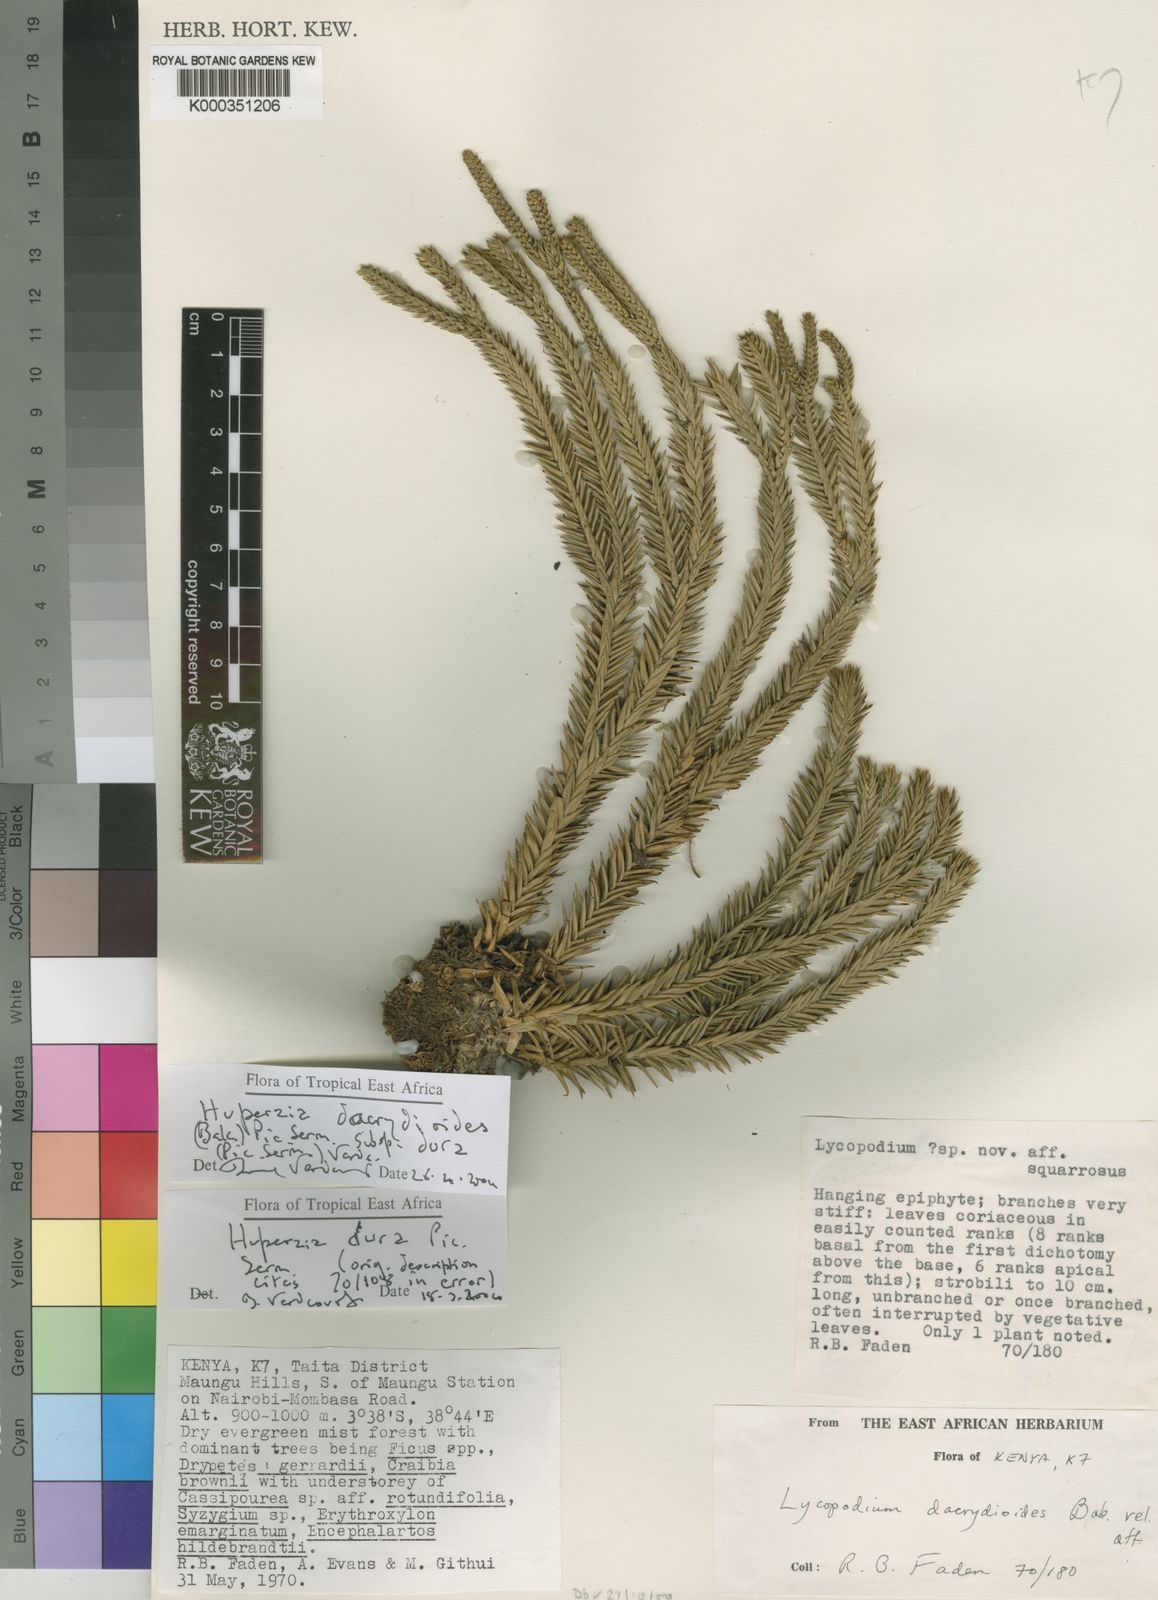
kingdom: Plantae
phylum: Tracheophyta
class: Lycopodiopsida
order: Lycopodiales
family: Lycopodiaceae
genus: Lycopodium
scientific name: Lycopodium
